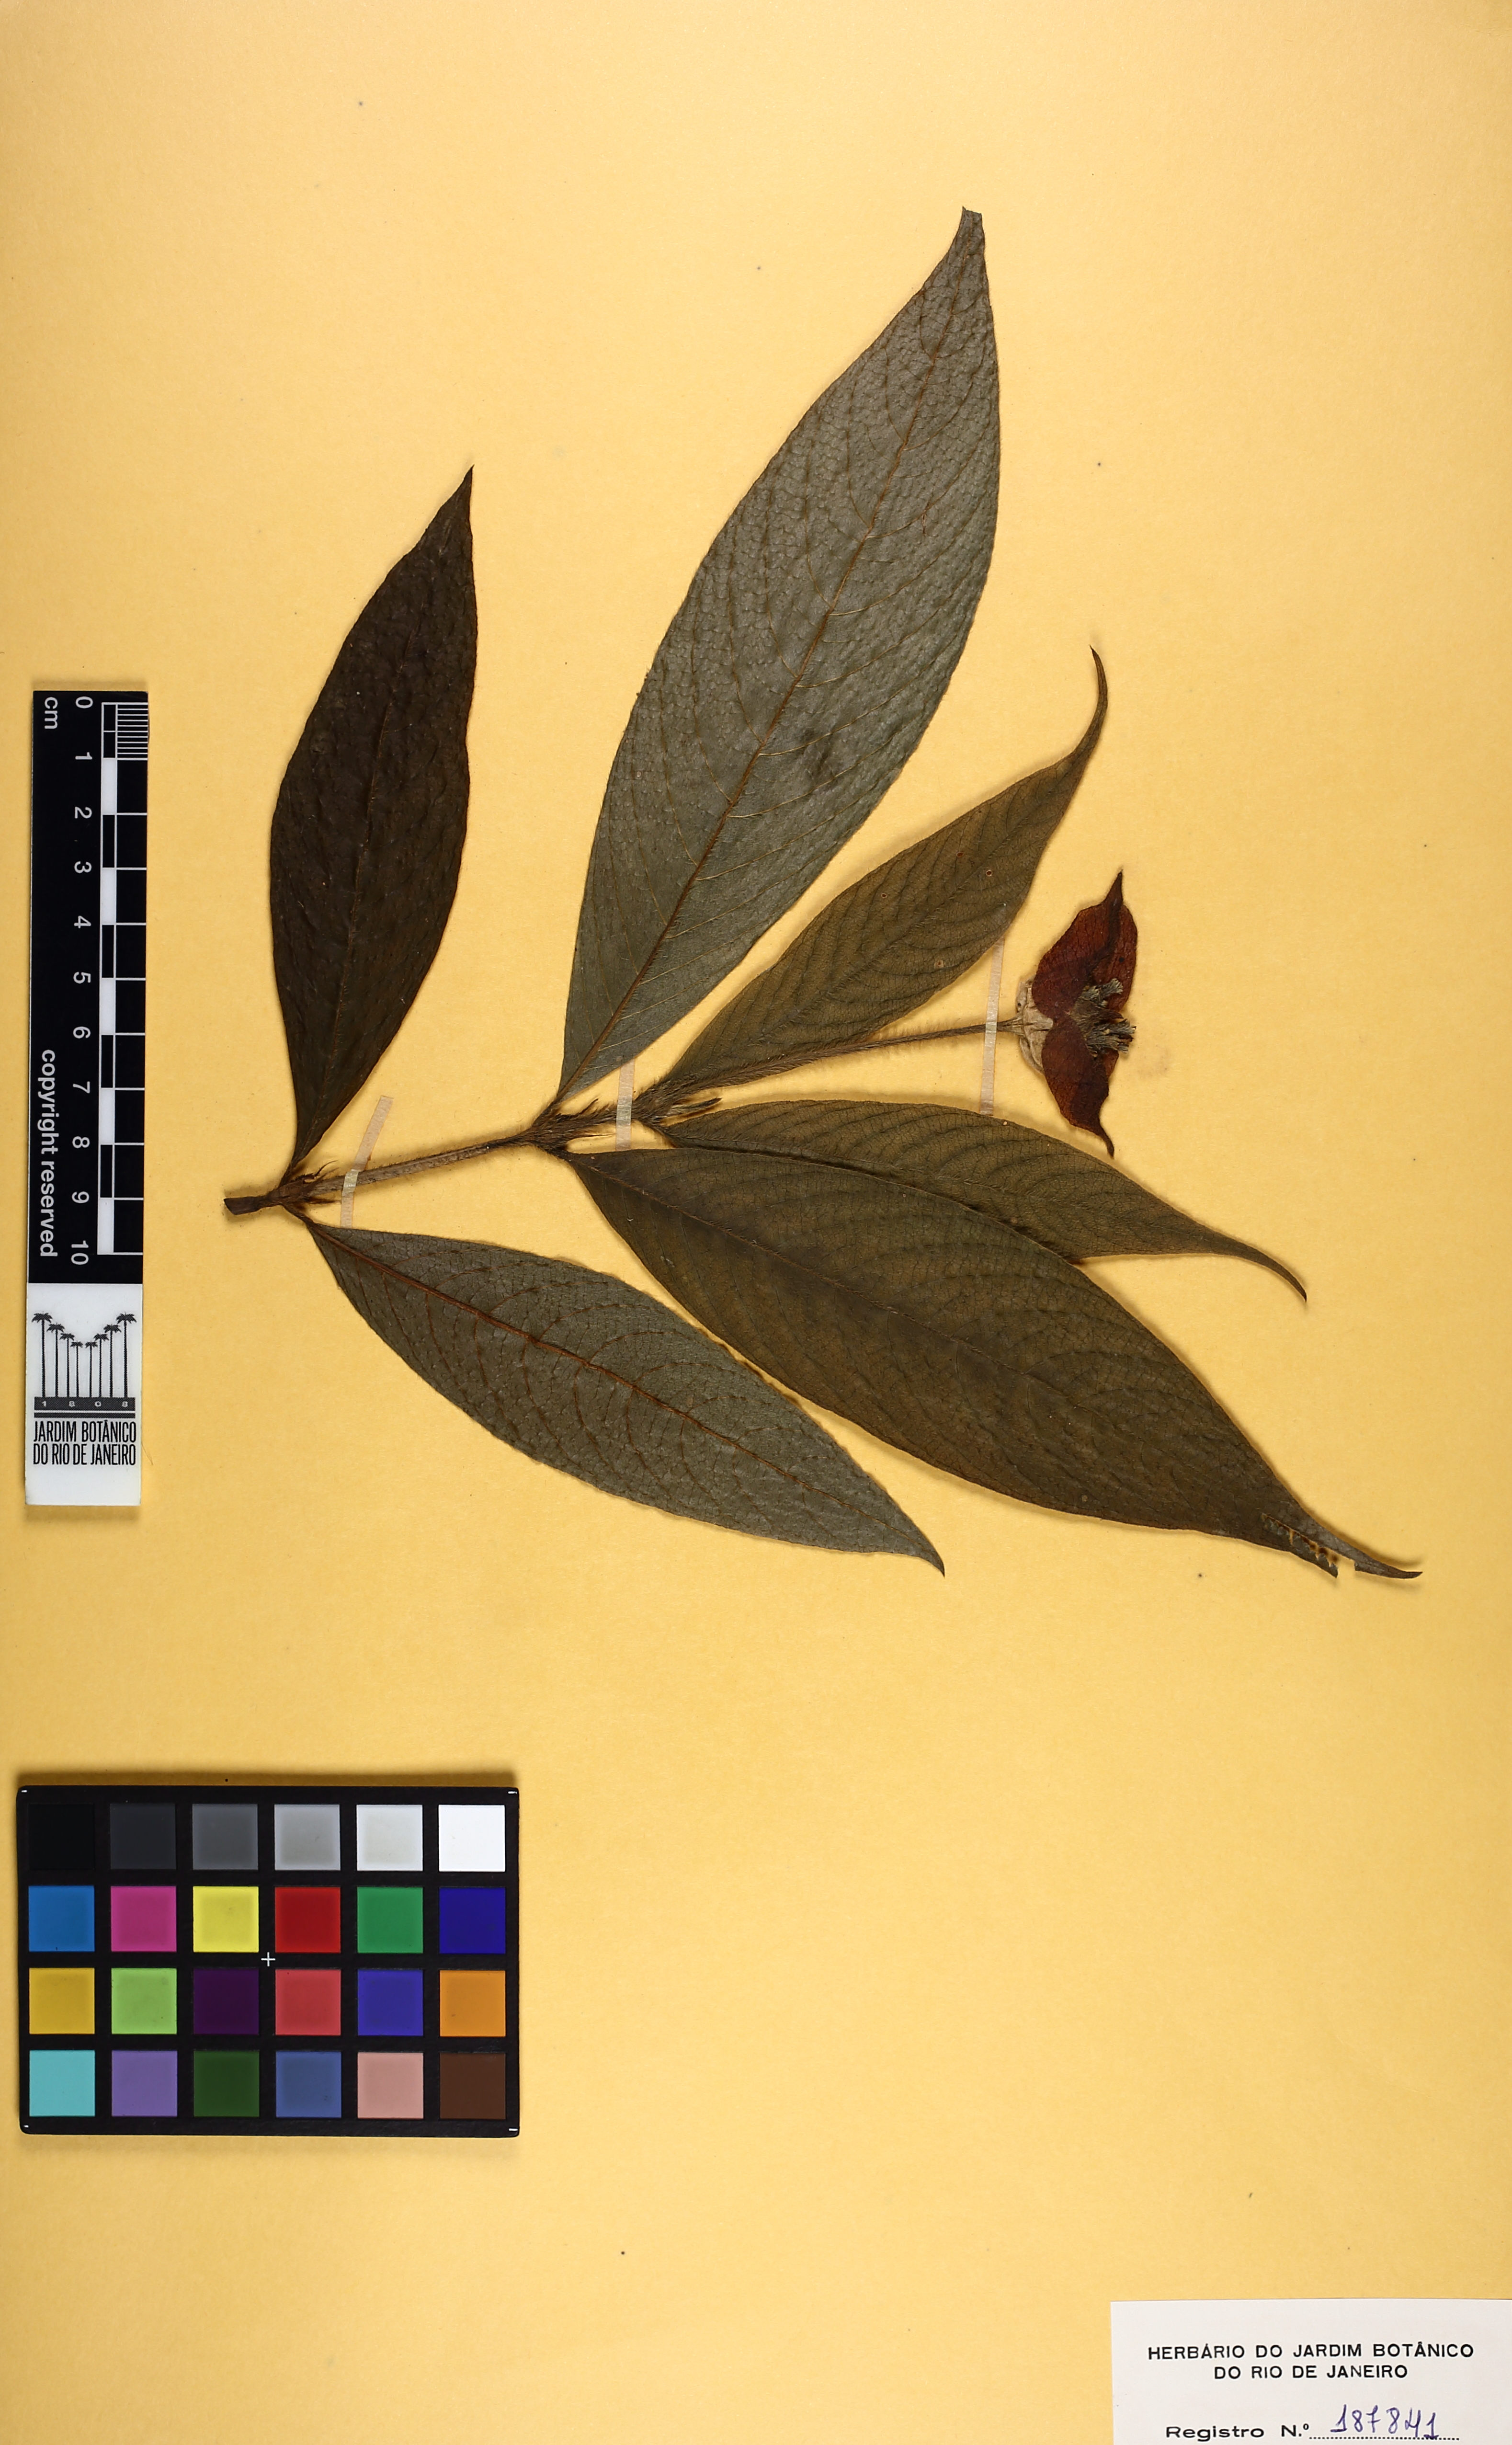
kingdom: Plantae
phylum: Tracheophyta
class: Magnoliopsida
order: Gentianales
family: Rubiaceae
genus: Palicourea
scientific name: Palicourea tomentosa
